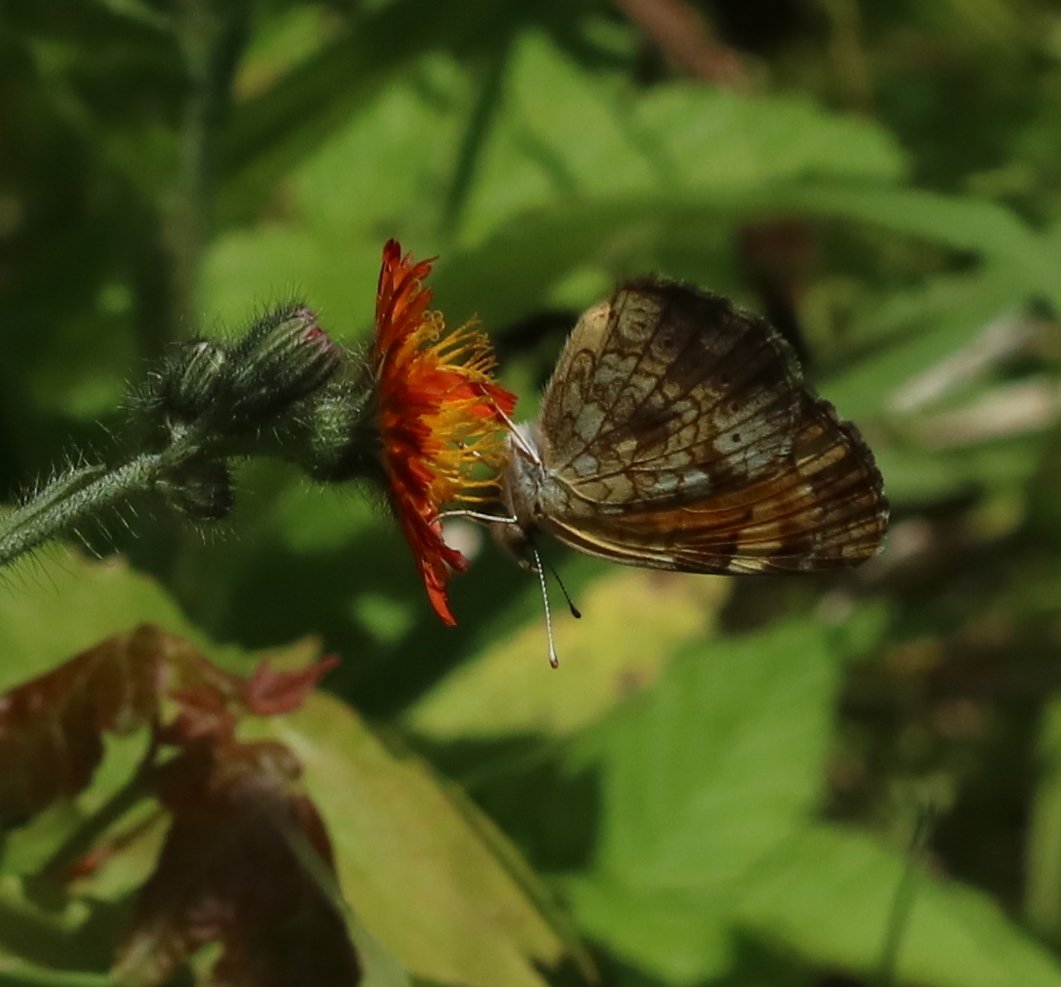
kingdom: Animalia
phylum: Arthropoda
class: Insecta
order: Lepidoptera
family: Nymphalidae
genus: Phyciodes
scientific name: Phyciodes tharos
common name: Northern Crescent
